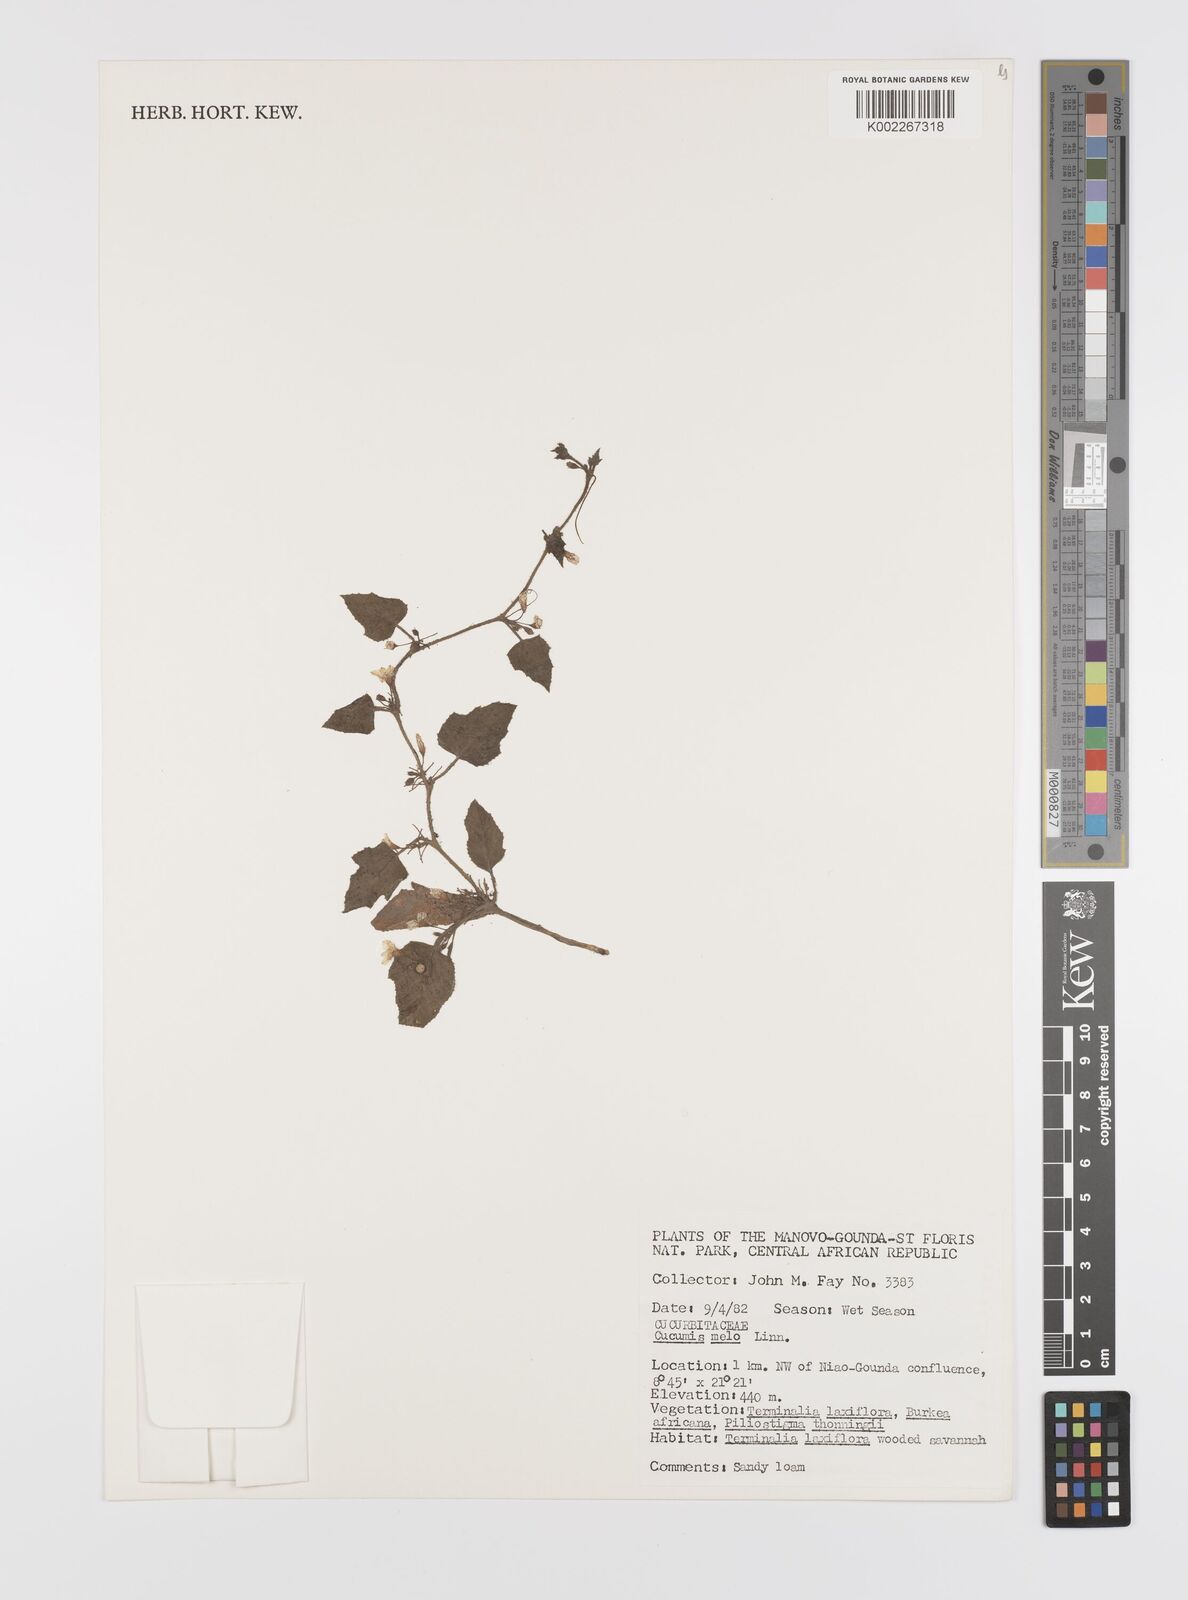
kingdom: Plantae
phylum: Tracheophyta
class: Magnoliopsida
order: Cucurbitales
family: Cucurbitaceae
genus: Cucumis
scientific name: Cucumis melo
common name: Melon
